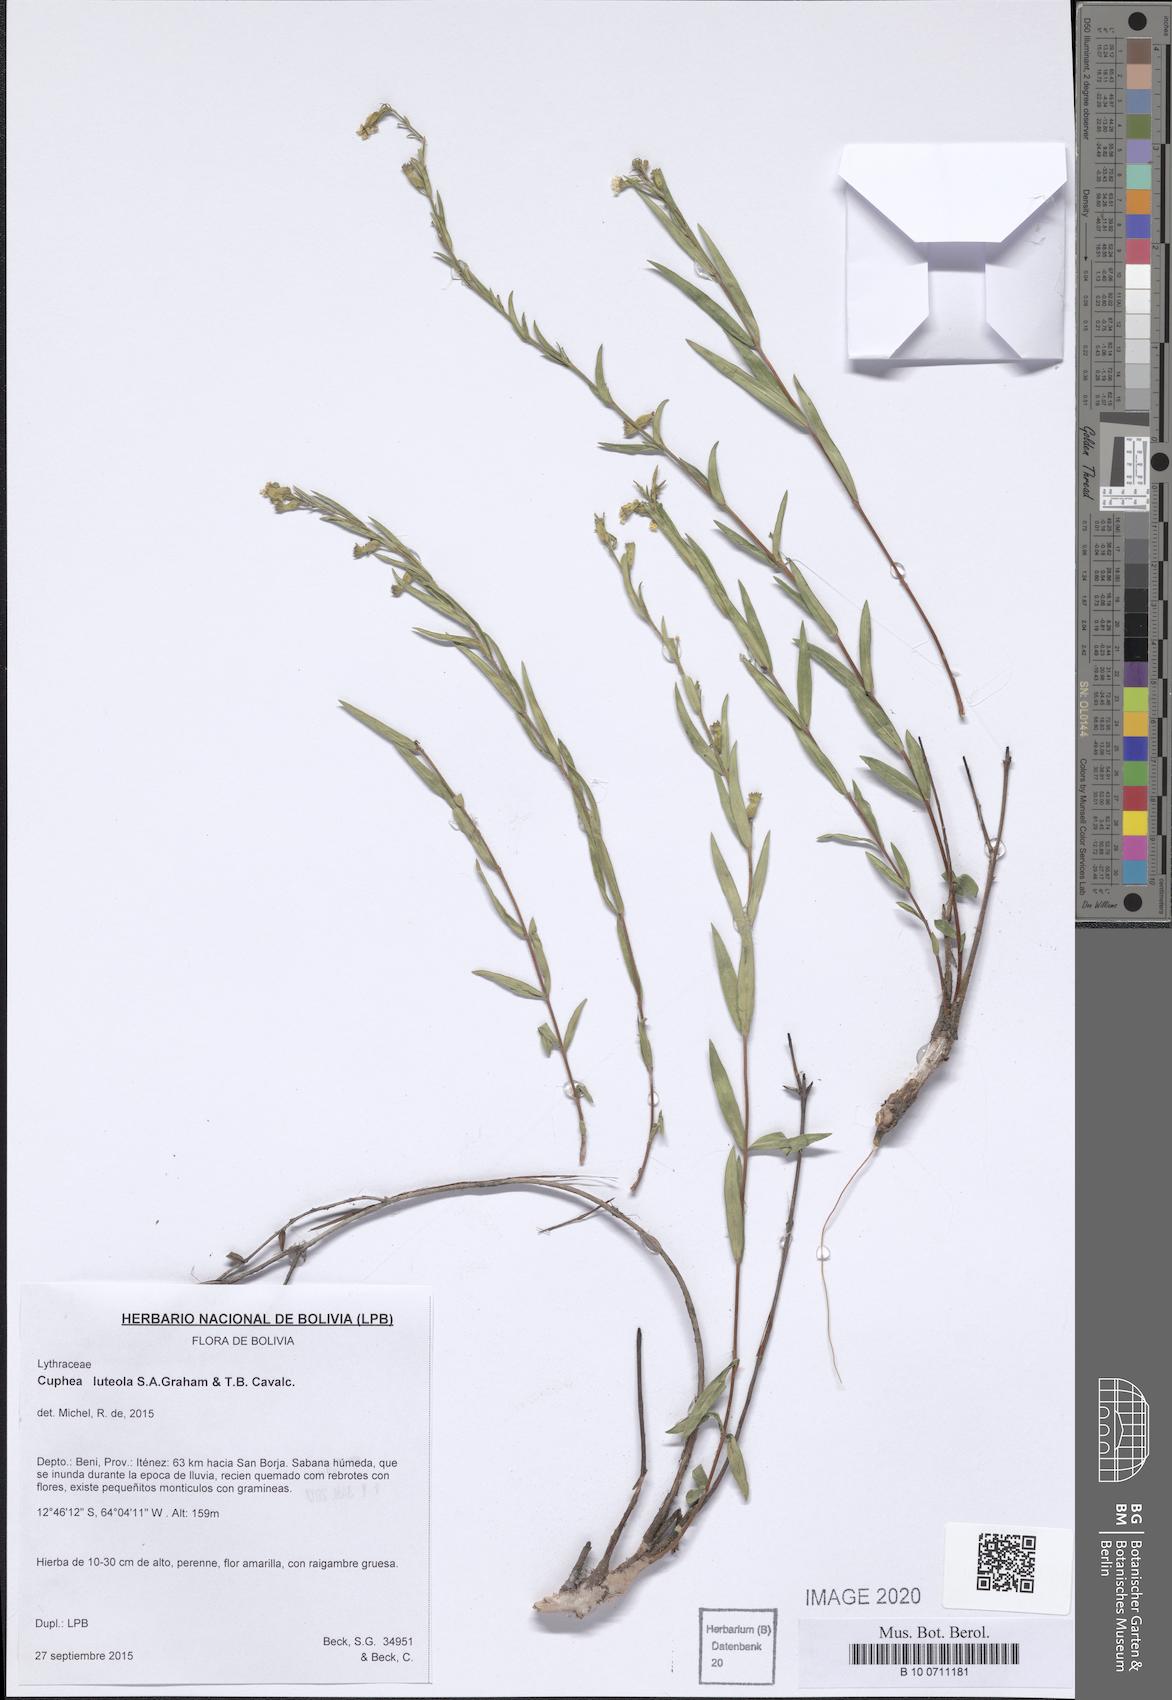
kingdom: Plantae
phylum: Tracheophyta
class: Magnoliopsida
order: Myrtales
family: Lythraceae
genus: Cuphea
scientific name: Cuphea luteola
